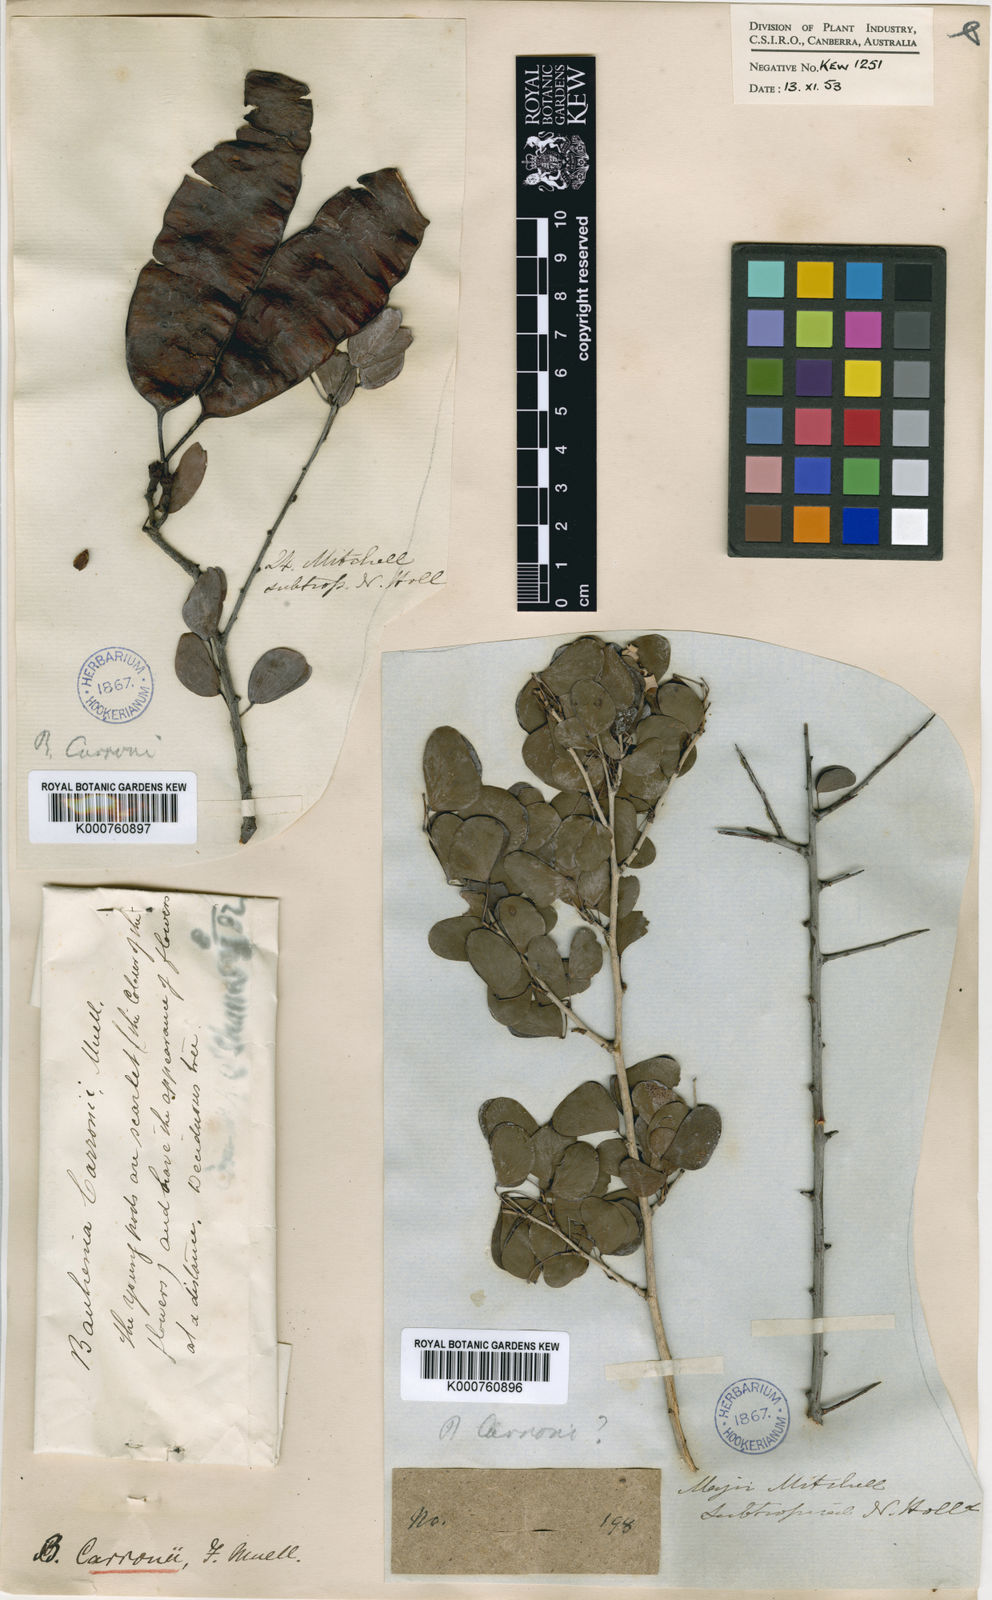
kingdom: Plantae
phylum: Tracheophyta
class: Magnoliopsida
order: Fabales
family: Fabaceae
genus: Lysiphyllum
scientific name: Lysiphyllum carronii
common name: Carron's bauhinia
